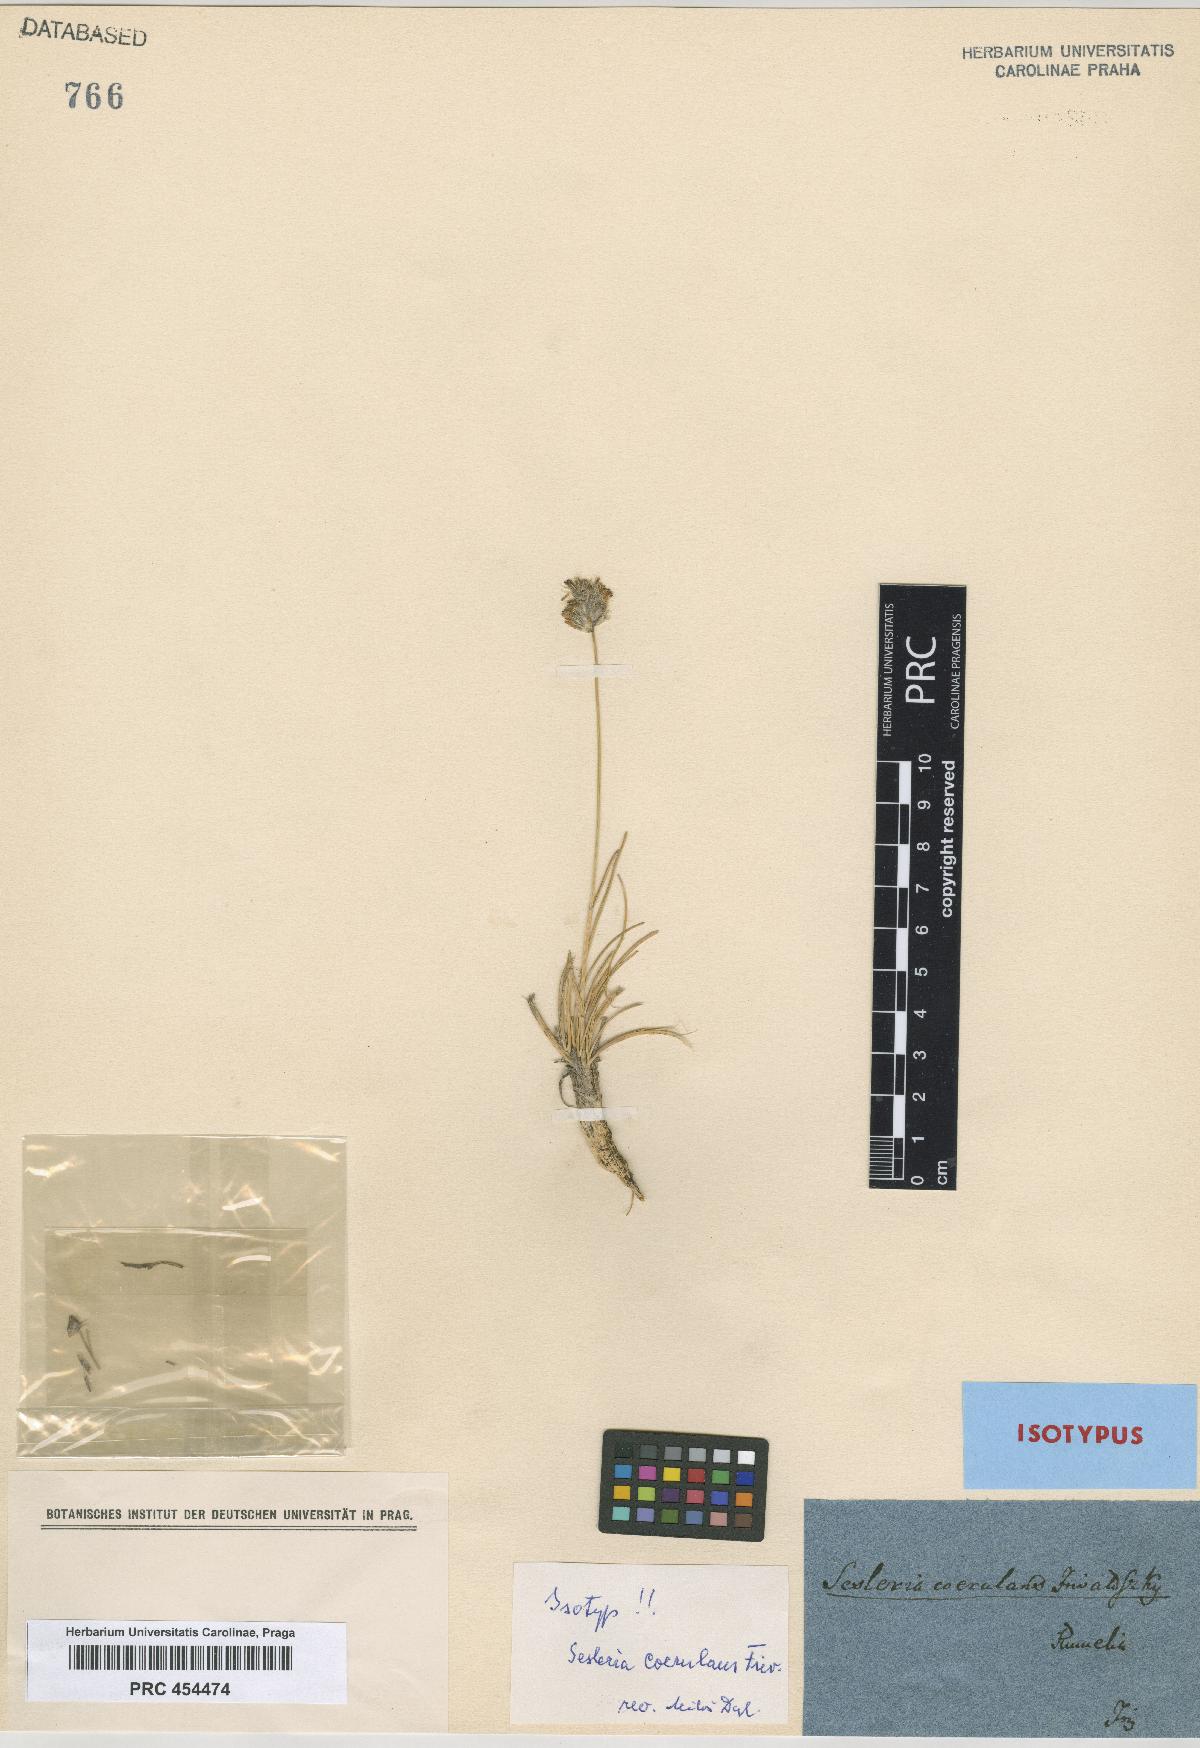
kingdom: Plantae
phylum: Tracheophyta
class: Liliopsida
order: Poales
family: Poaceae
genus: Sesleria
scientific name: Sesleria coerulans
